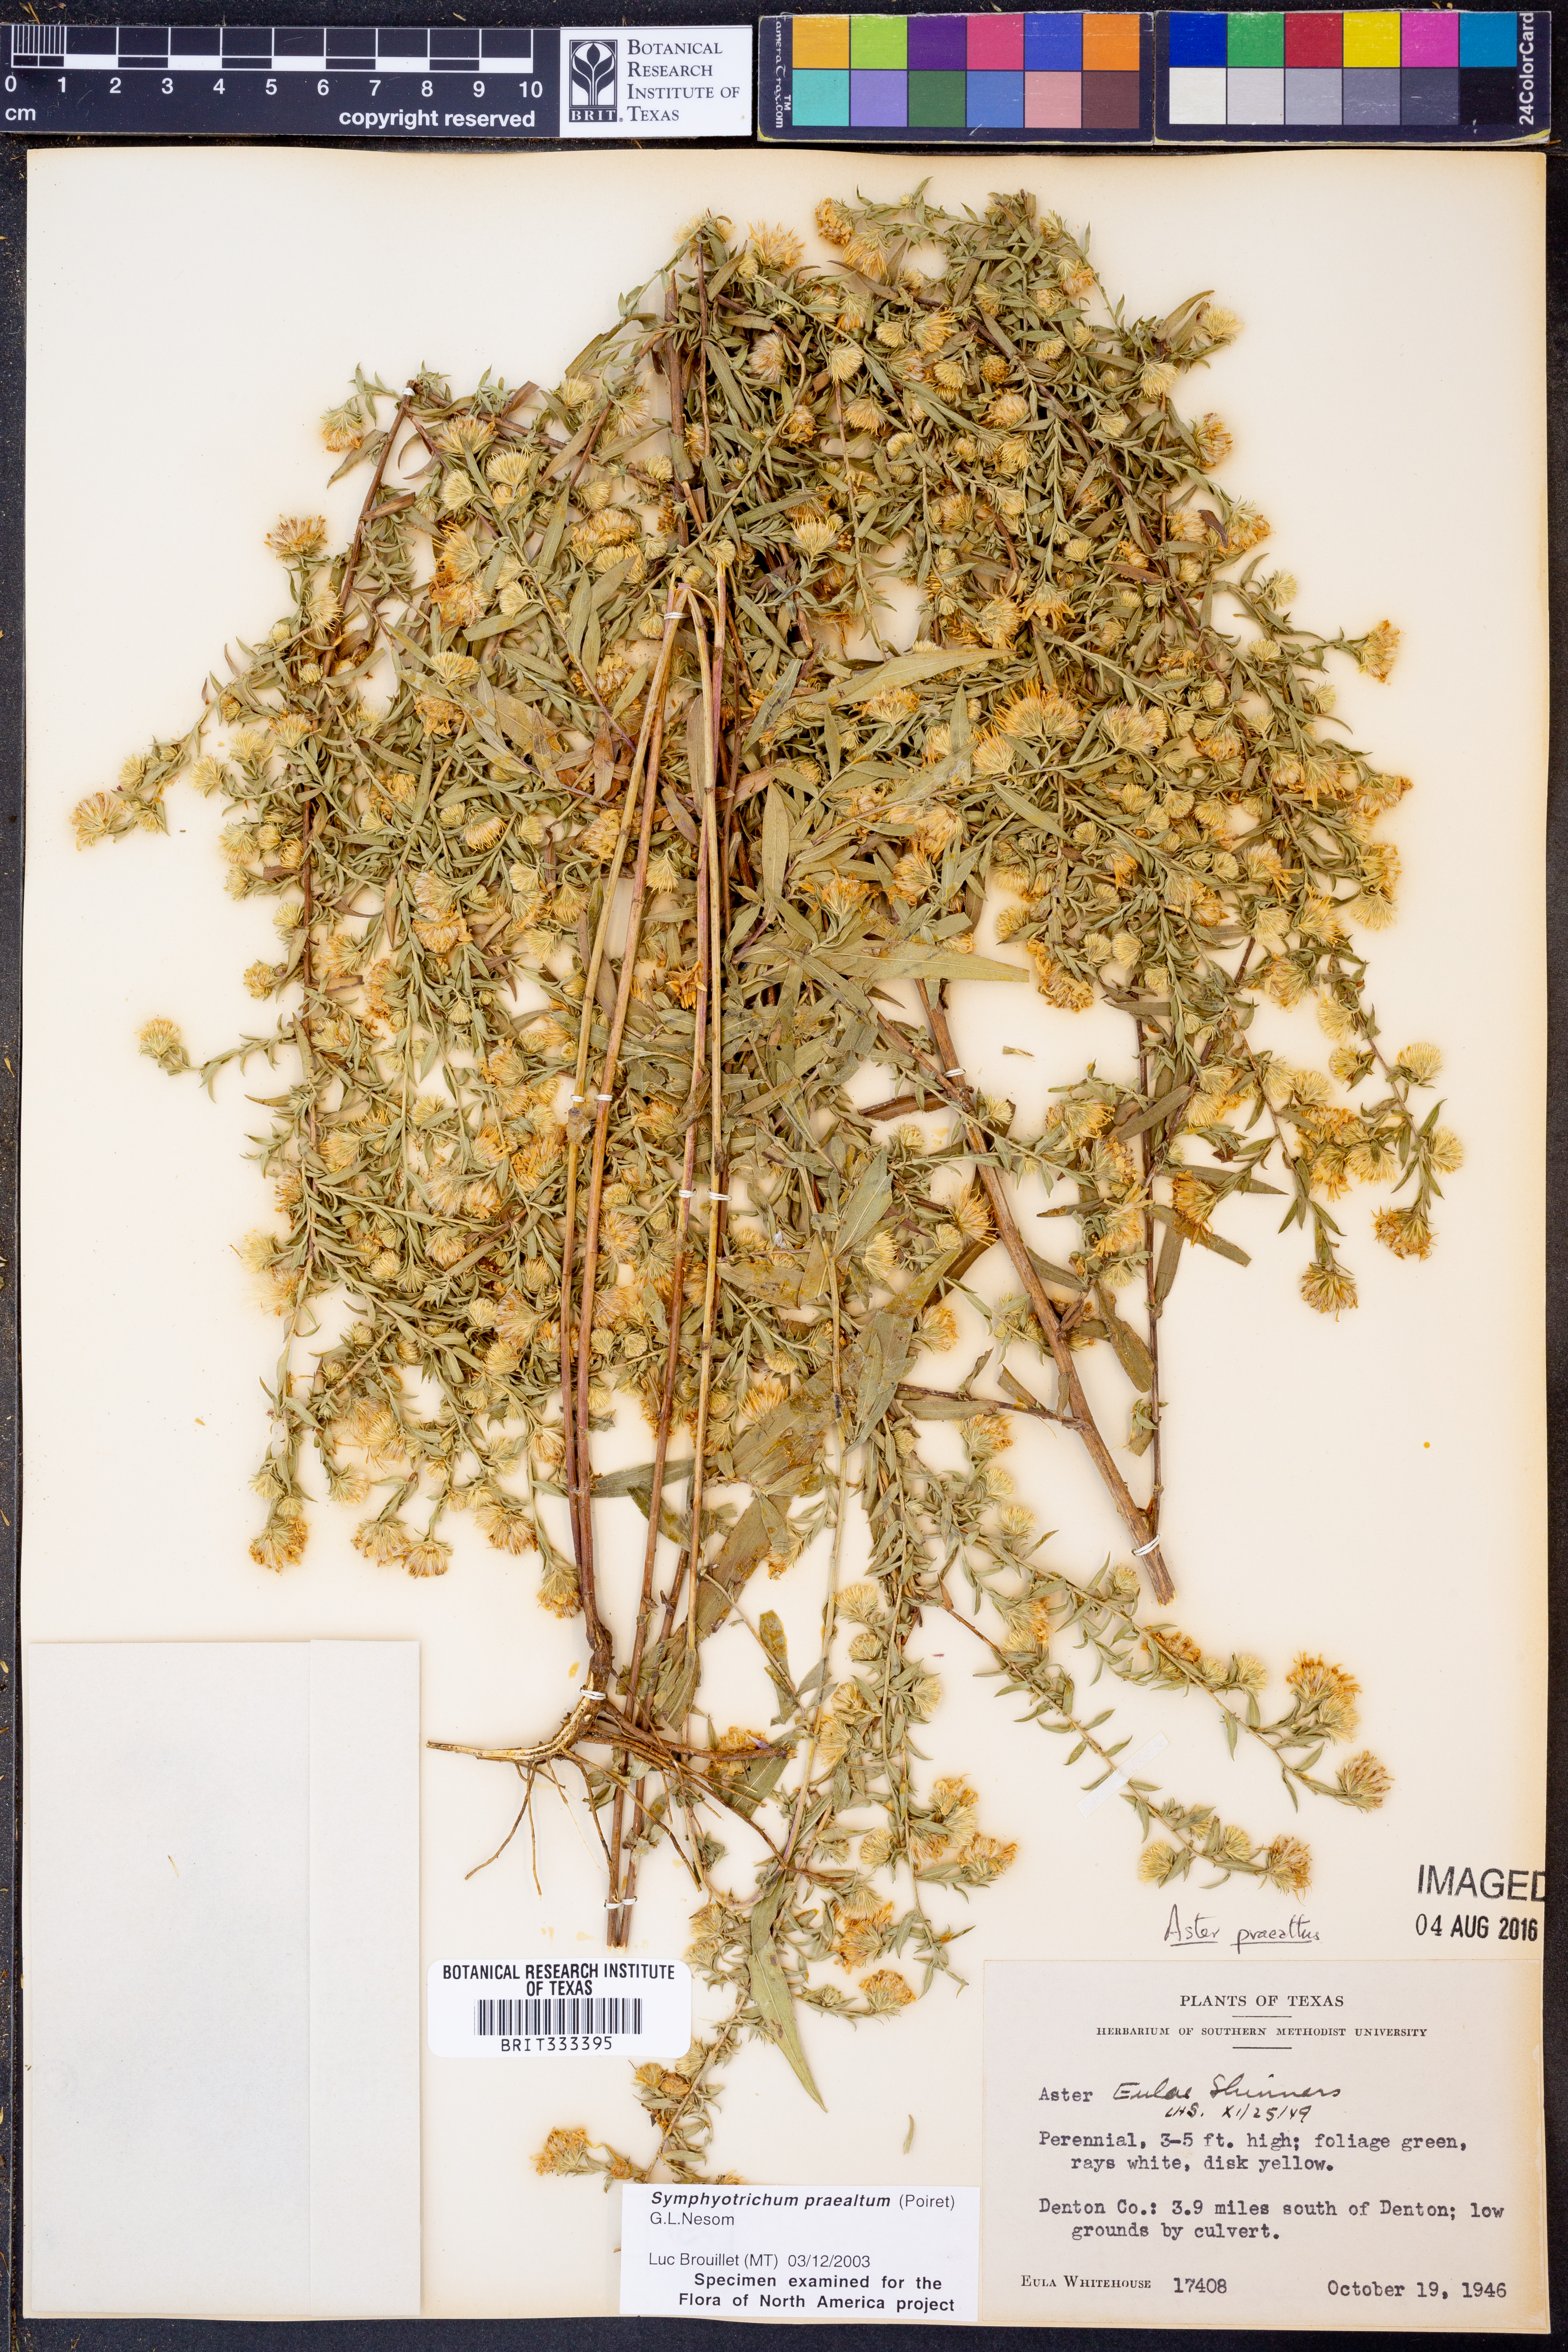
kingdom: Plantae
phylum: Tracheophyta
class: Magnoliopsida
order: Asterales
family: Asteraceae
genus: Symphyotrichum
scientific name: Symphyotrichum praealtum
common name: Willow aster
